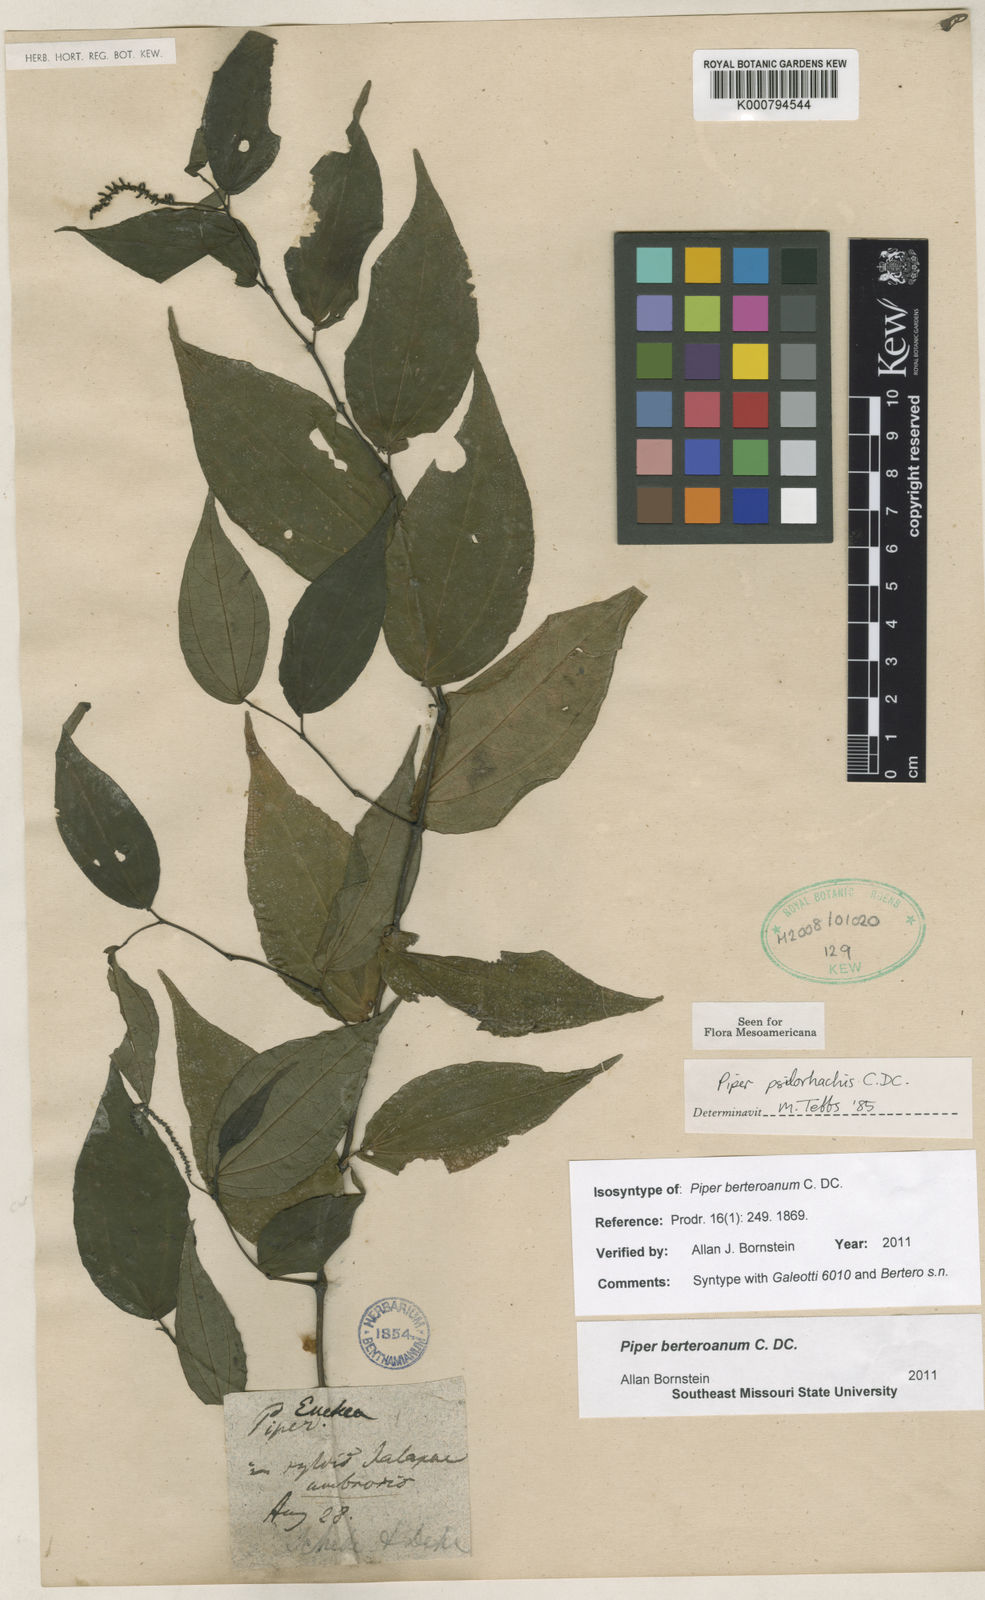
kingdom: Plantae
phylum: Tracheophyta
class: Magnoliopsida
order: Piperales
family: Piperaceae
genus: Piper
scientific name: Piper schlechtendalii
